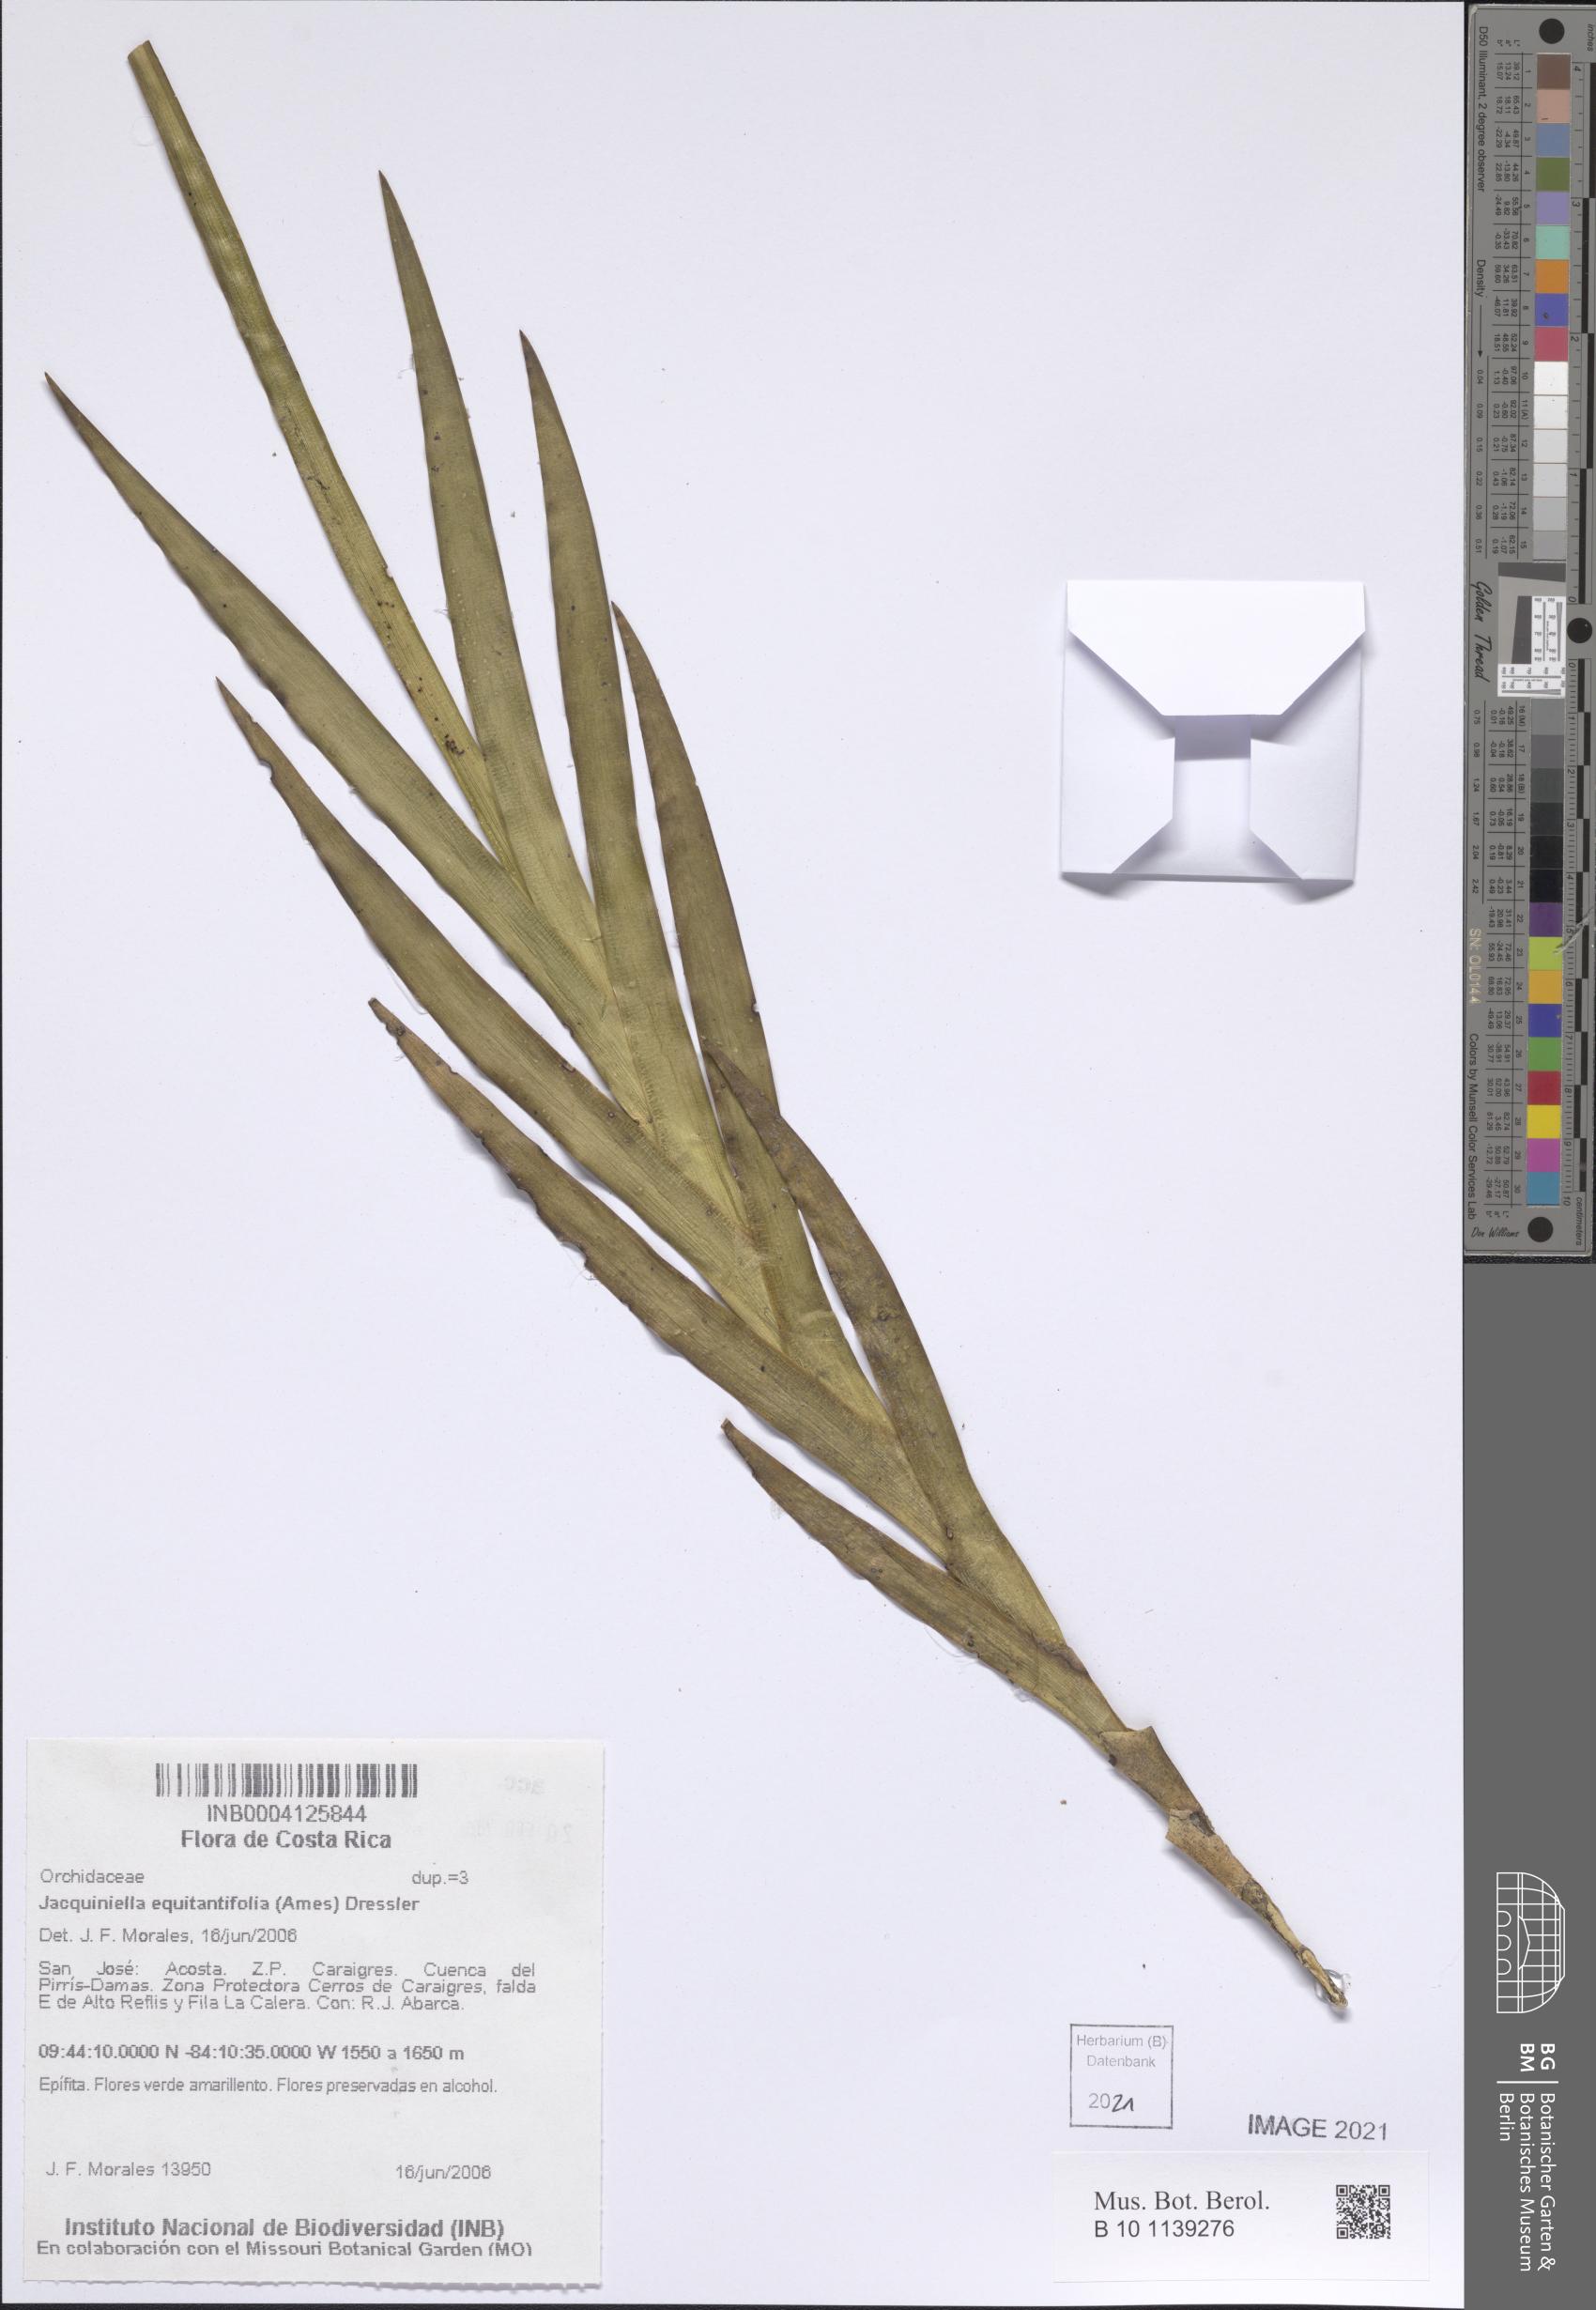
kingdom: Plantae
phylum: Tracheophyta
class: Liliopsida
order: Asparagales
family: Orchidaceae
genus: Jacquiniella
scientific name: Jacquiniella equitantifolia
